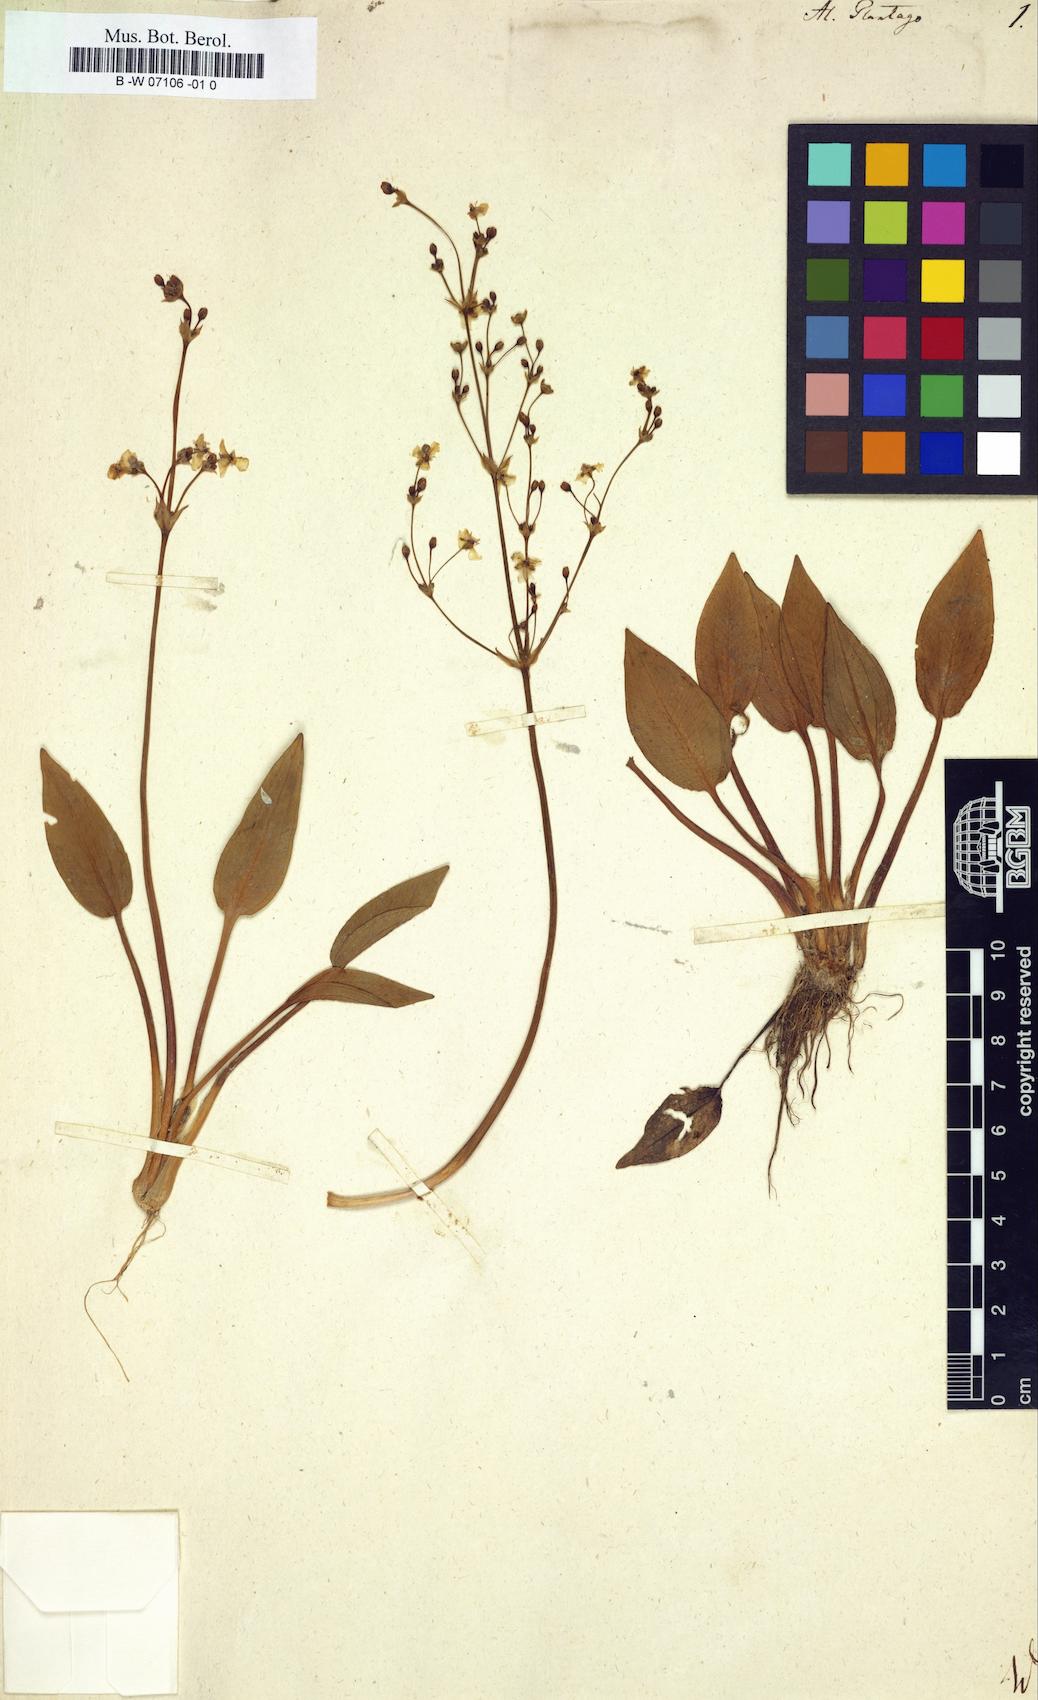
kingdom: Plantae
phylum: Tracheophyta
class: Liliopsida
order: Alismatales
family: Alismataceae
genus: Alisma
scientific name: Alisma plantago-aquatica
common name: Water-plantain
